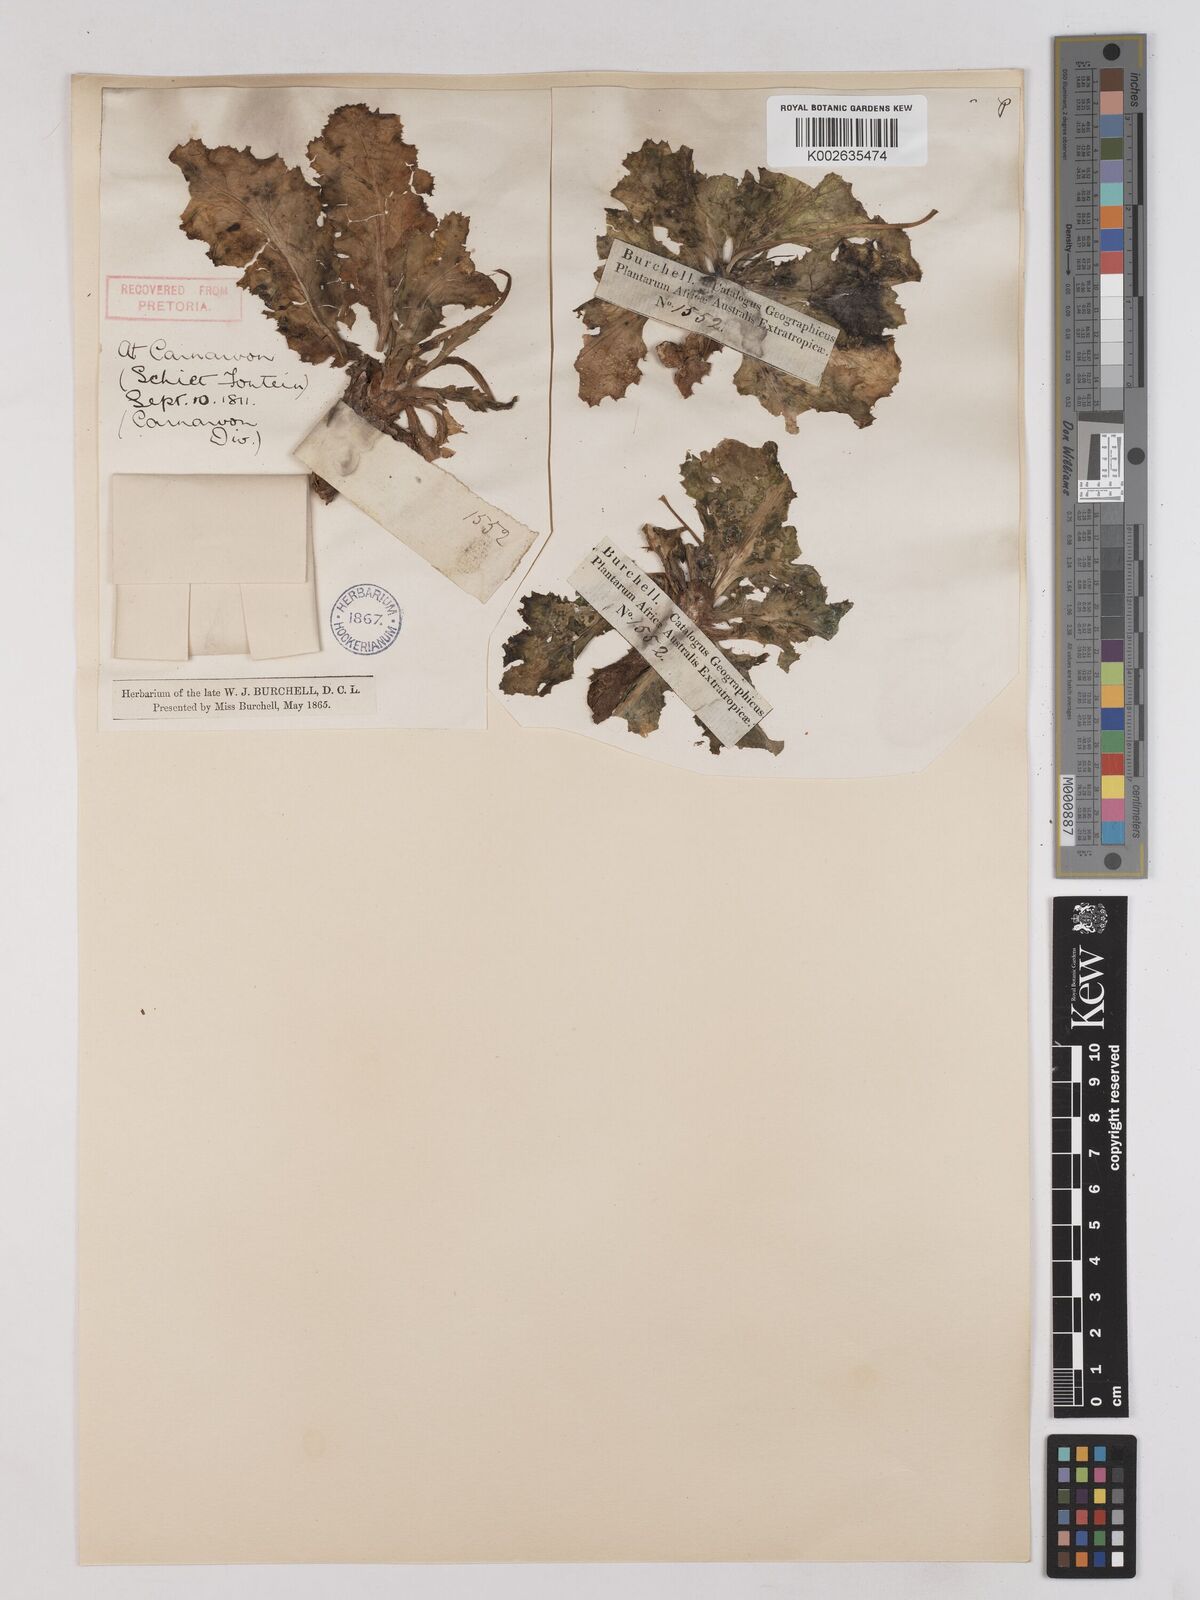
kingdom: Plantae
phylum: Tracheophyta
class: Magnoliopsida
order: Asterales
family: Asteraceae
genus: Othonna
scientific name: Othonna auriculifolia
